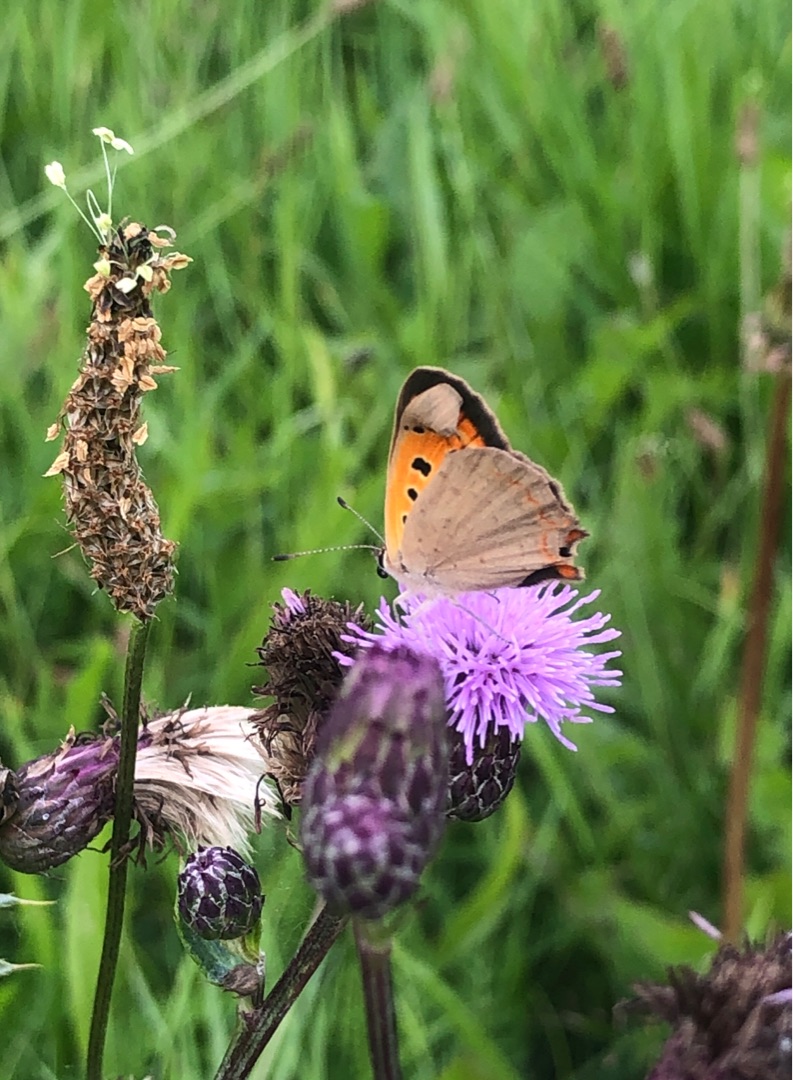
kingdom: Animalia
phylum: Arthropoda
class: Insecta
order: Lepidoptera
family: Lycaenidae
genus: Lycaena
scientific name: Lycaena phlaeas
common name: Lille ildfugl
